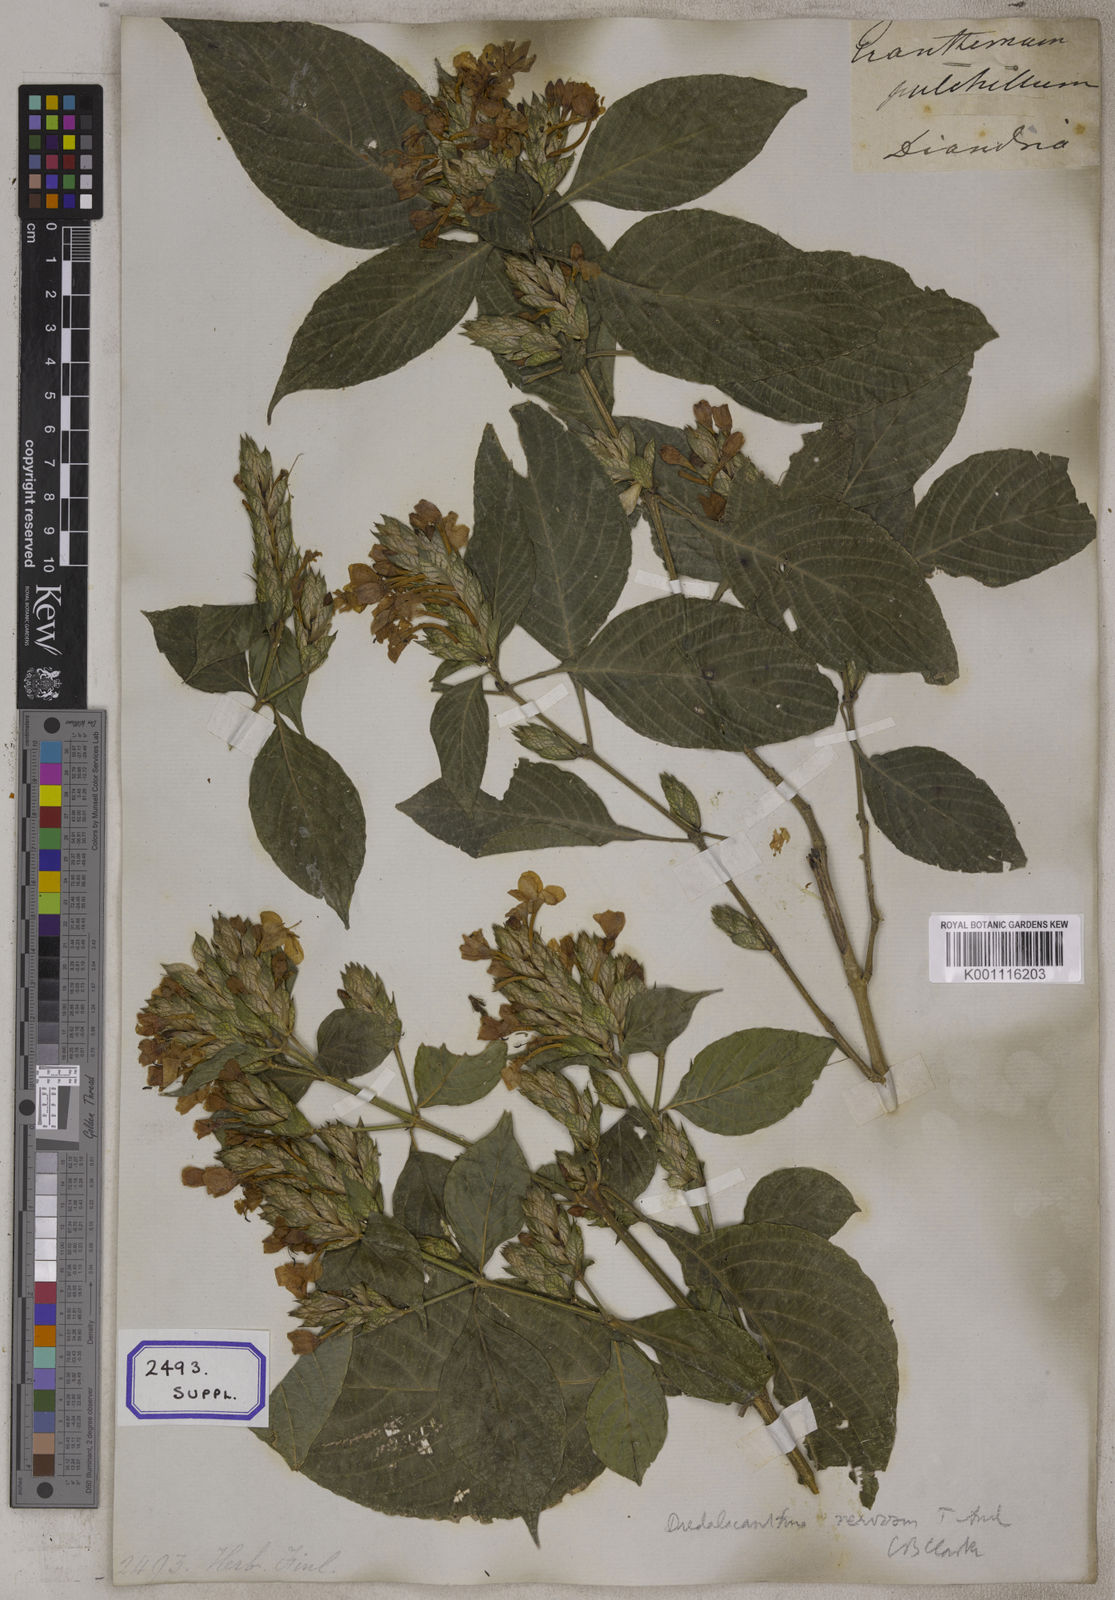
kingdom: Plantae
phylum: Tracheophyta
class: Magnoliopsida
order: Lamiales
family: Acanthaceae
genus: Eranthemum
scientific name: Eranthemum
